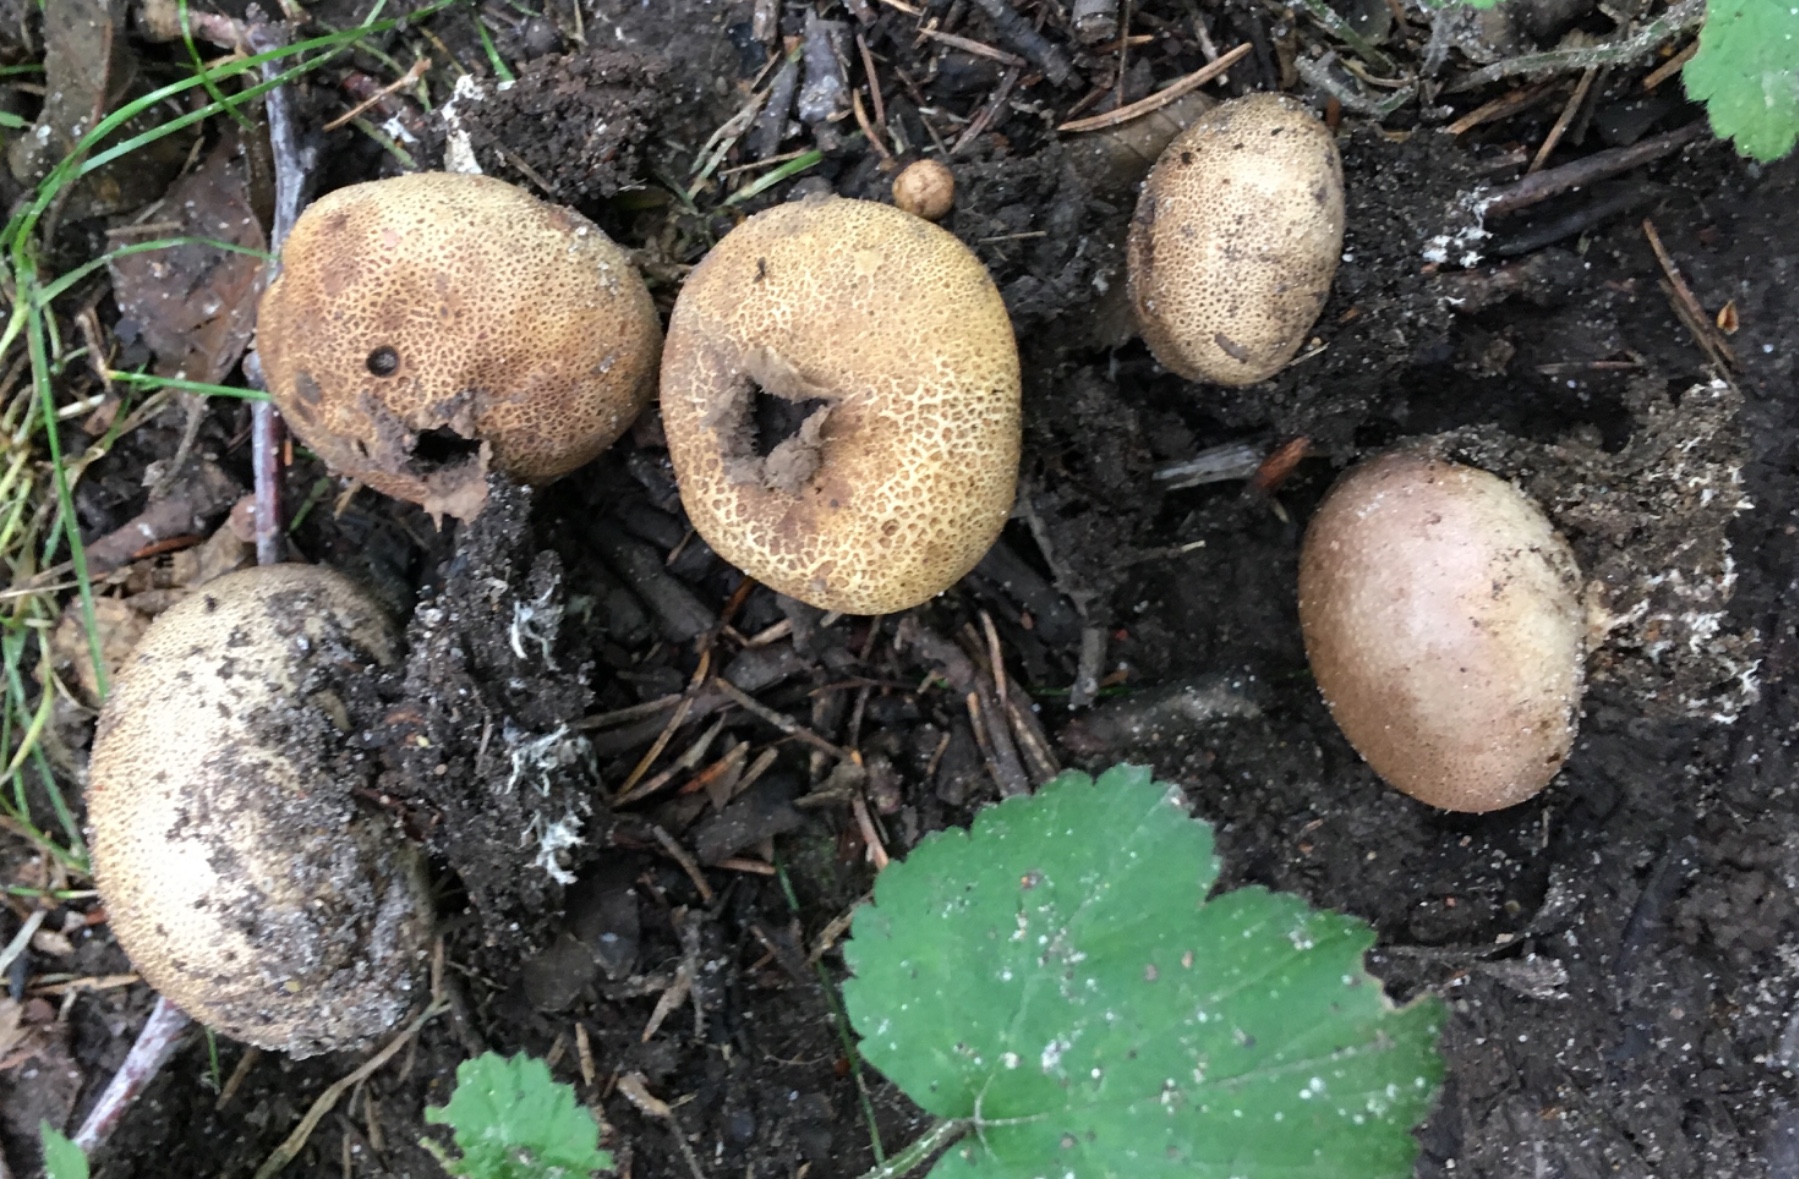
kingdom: Fungi
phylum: Basidiomycota
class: Agaricomycetes
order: Boletales
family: Sclerodermataceae
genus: Scleroderma
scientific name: Scleroderma areolatum
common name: plettet bruskbold
